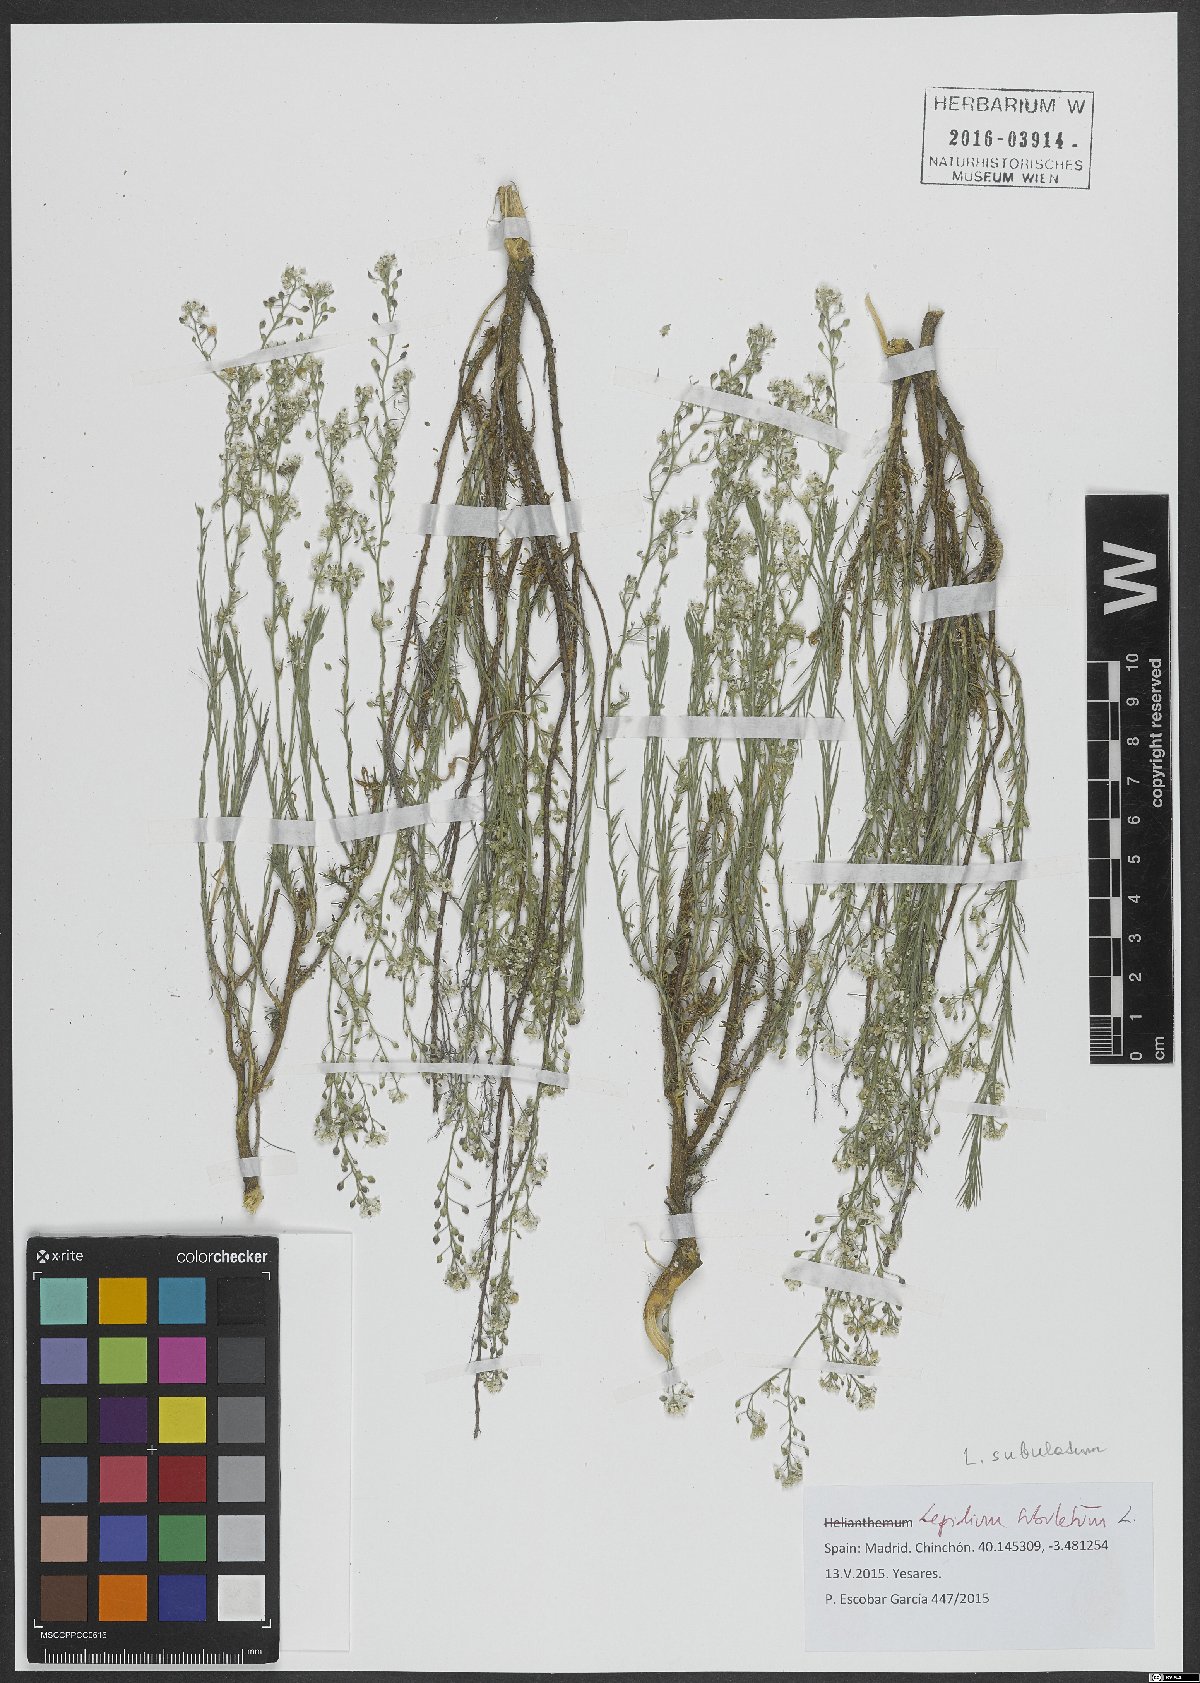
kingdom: Plantae
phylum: Tracheophyta
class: Magnoliopsida
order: Brassicales
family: Brassicaceae
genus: Lepidium
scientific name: Lepidium subulatum
